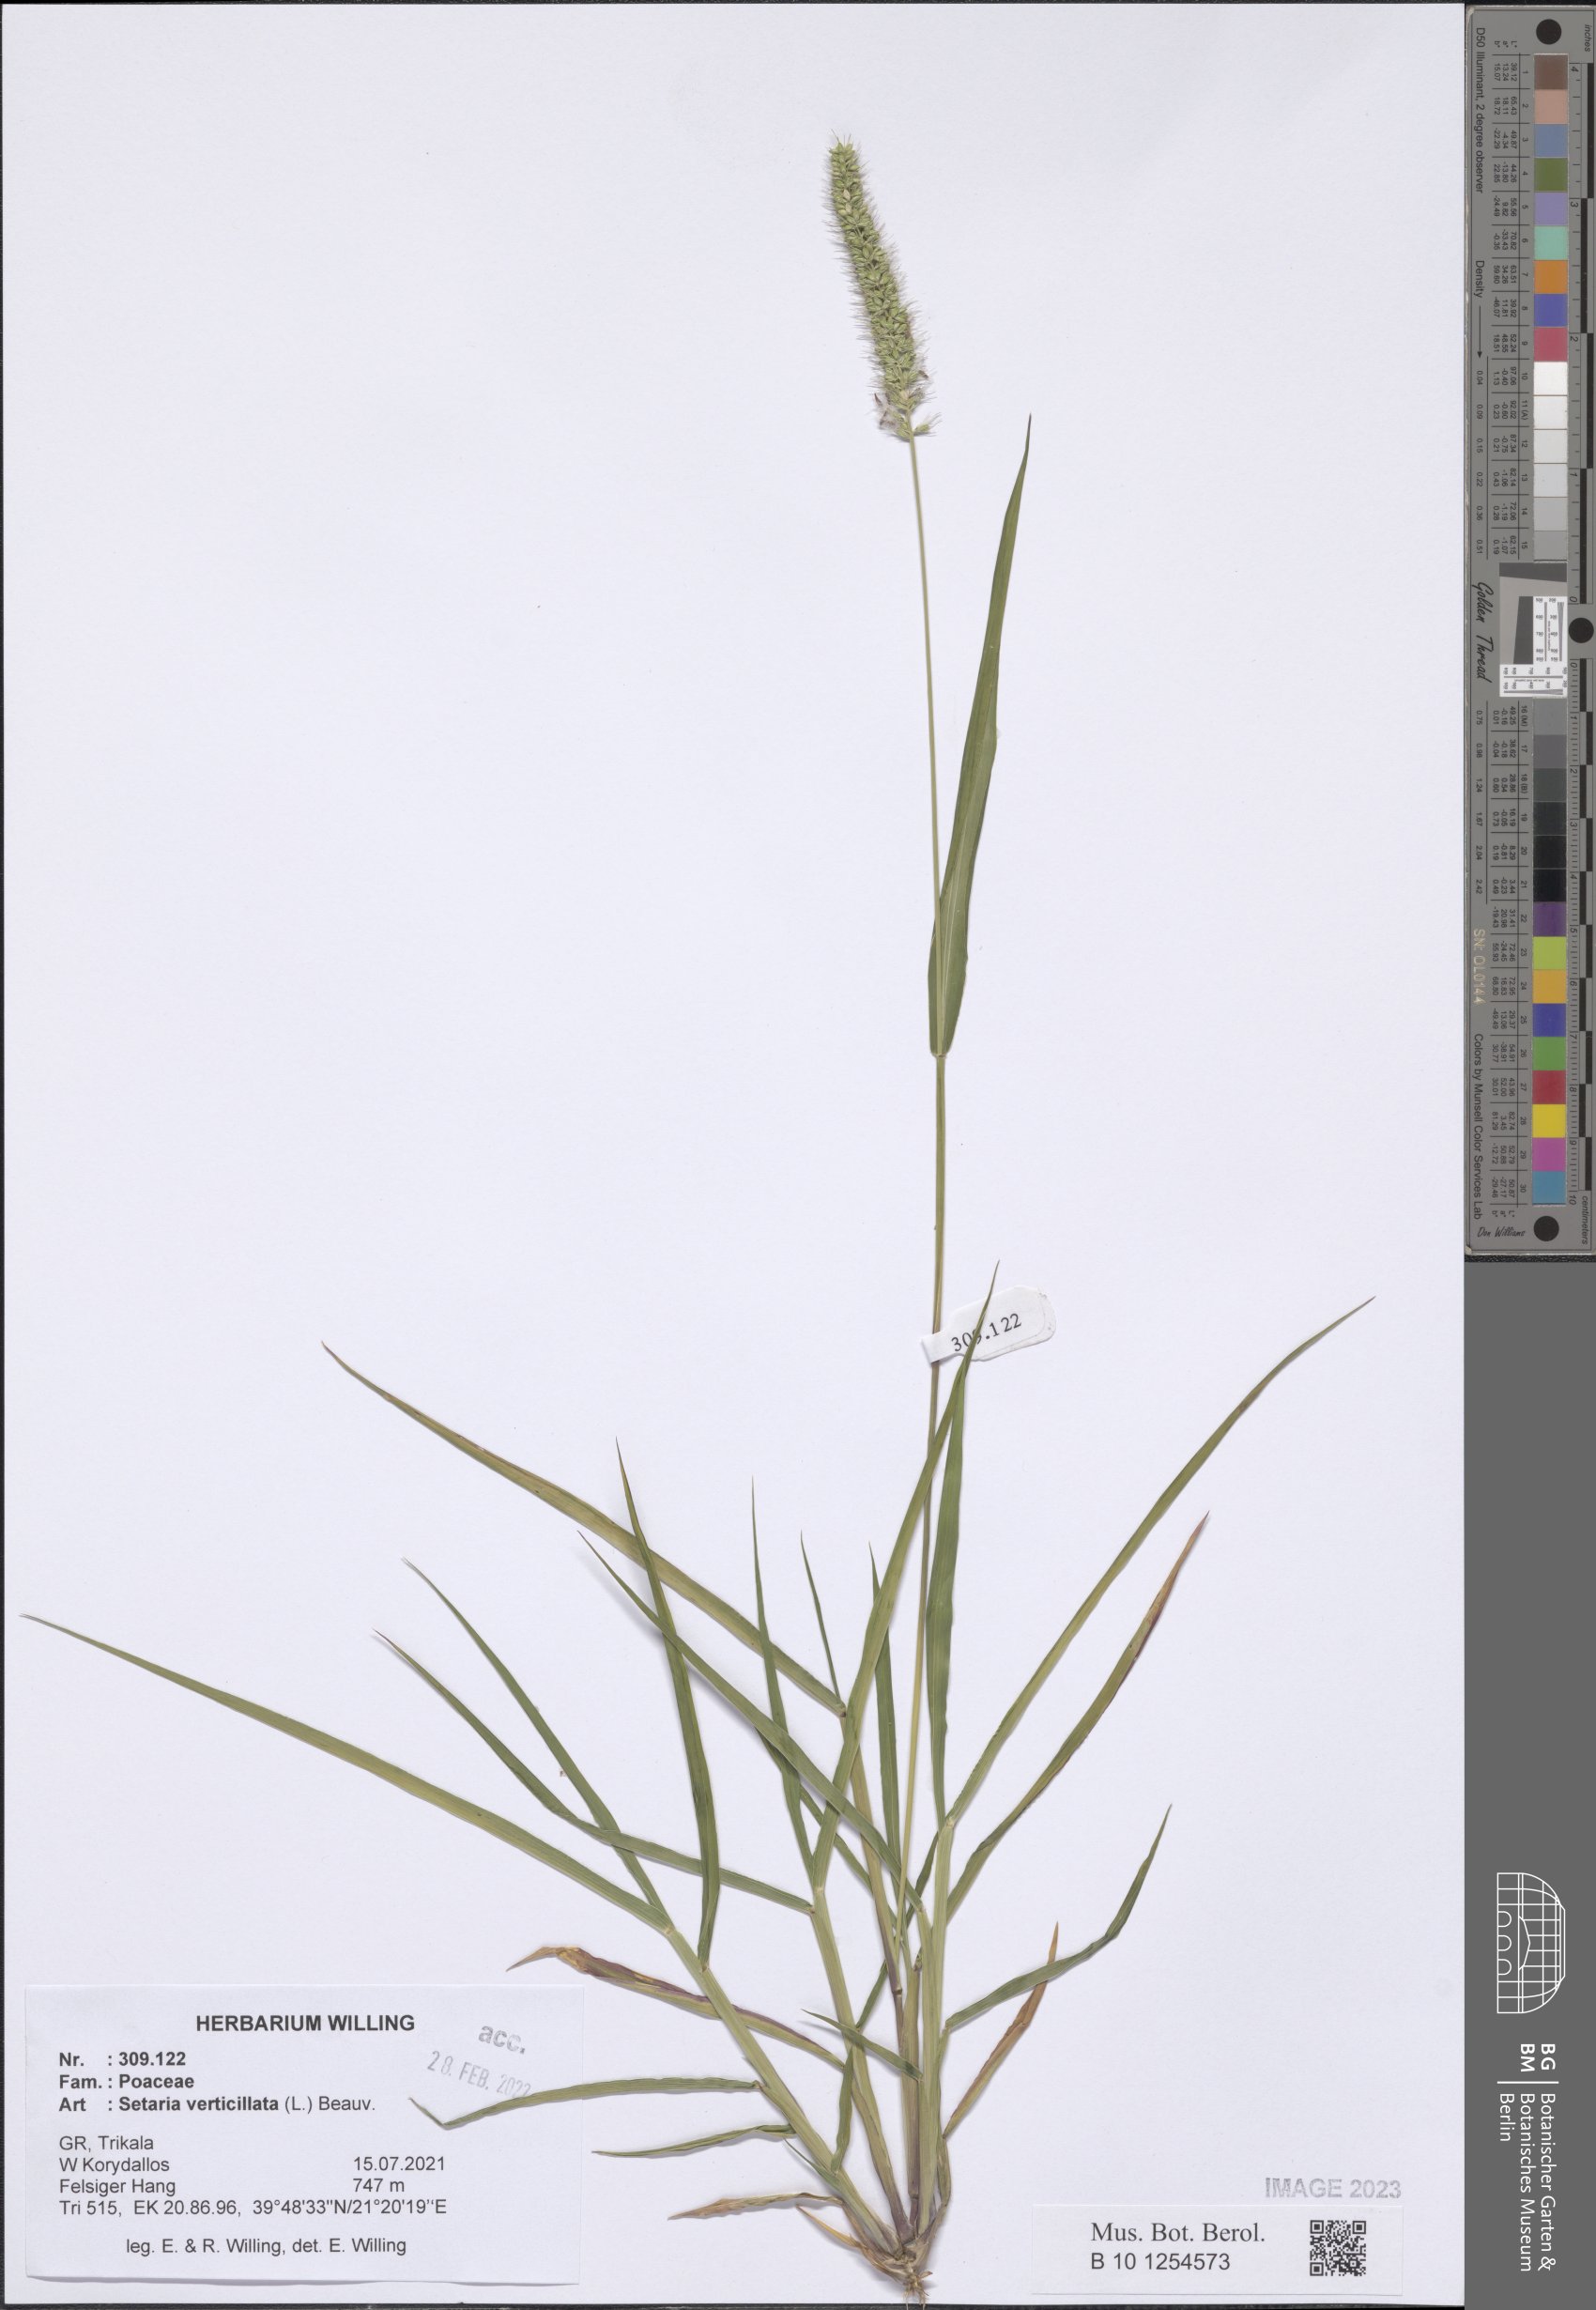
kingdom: Plantae
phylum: Tracheophyta
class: Liliopsida
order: Poales
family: Poaceae
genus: Setaria
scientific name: Setaria verticillata
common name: Hooked bristlegrass
